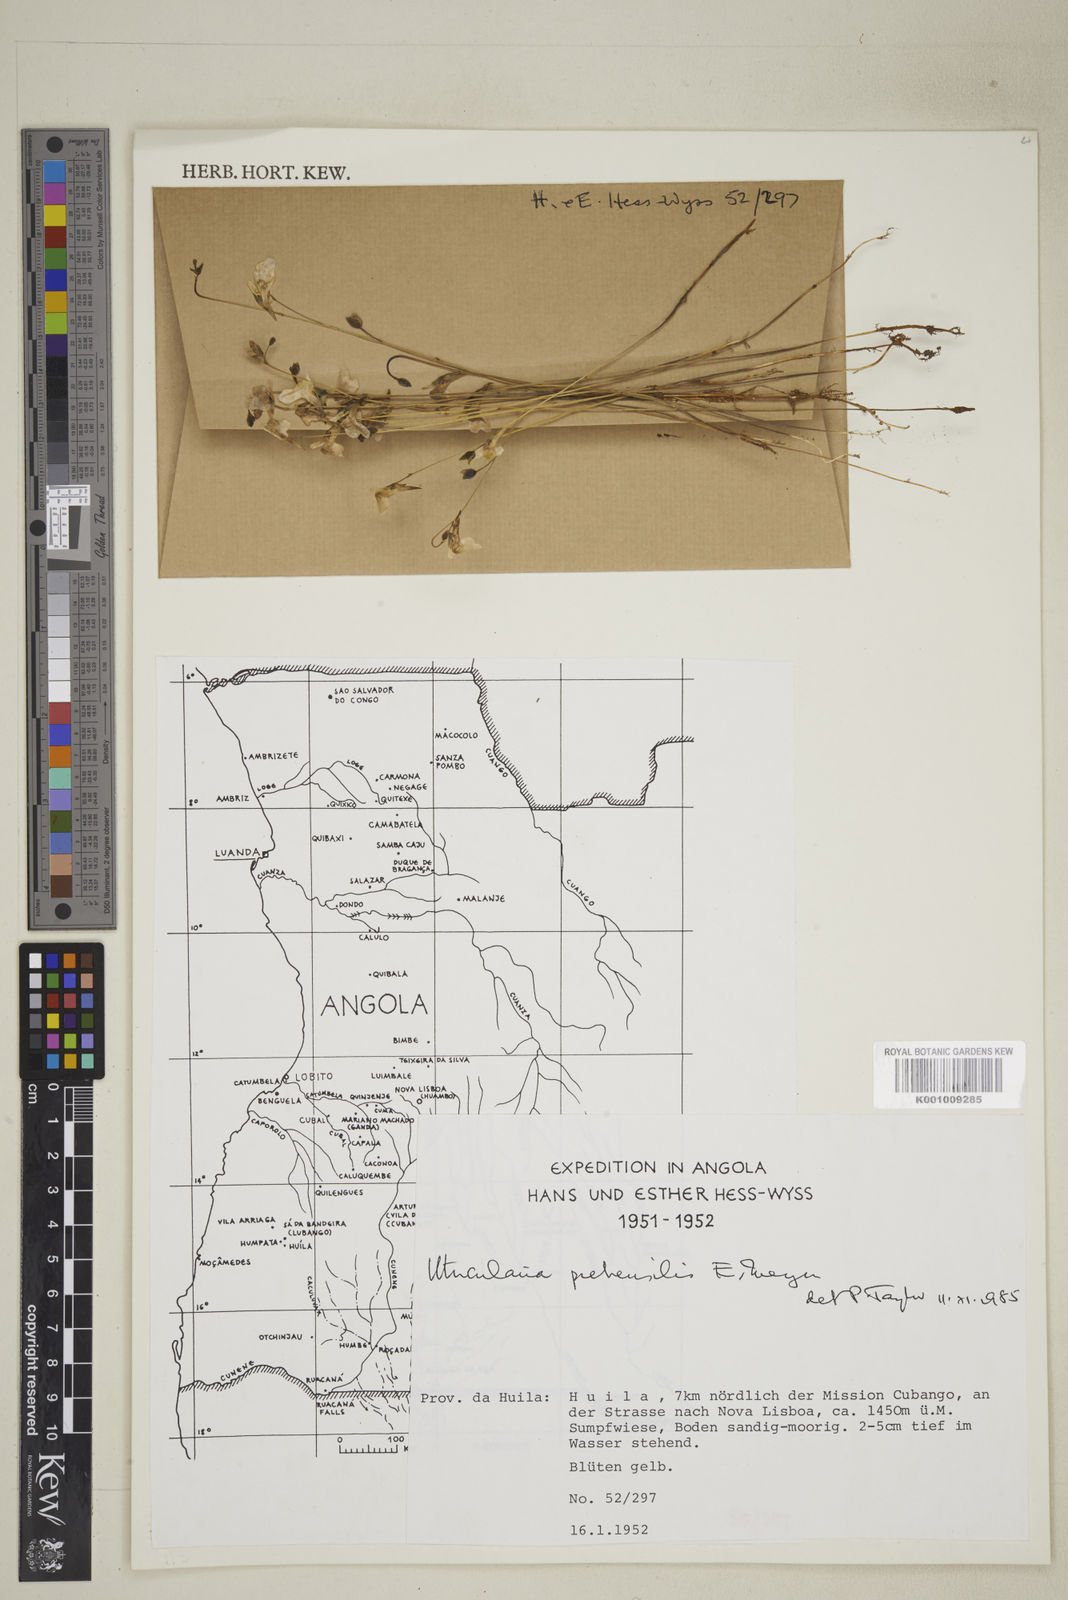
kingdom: Plantae
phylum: Tracheophyta
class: Magnoliopsida
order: Lamiales
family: Lentibulariaceae
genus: Utricularia
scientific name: Utricularia prehensilis
